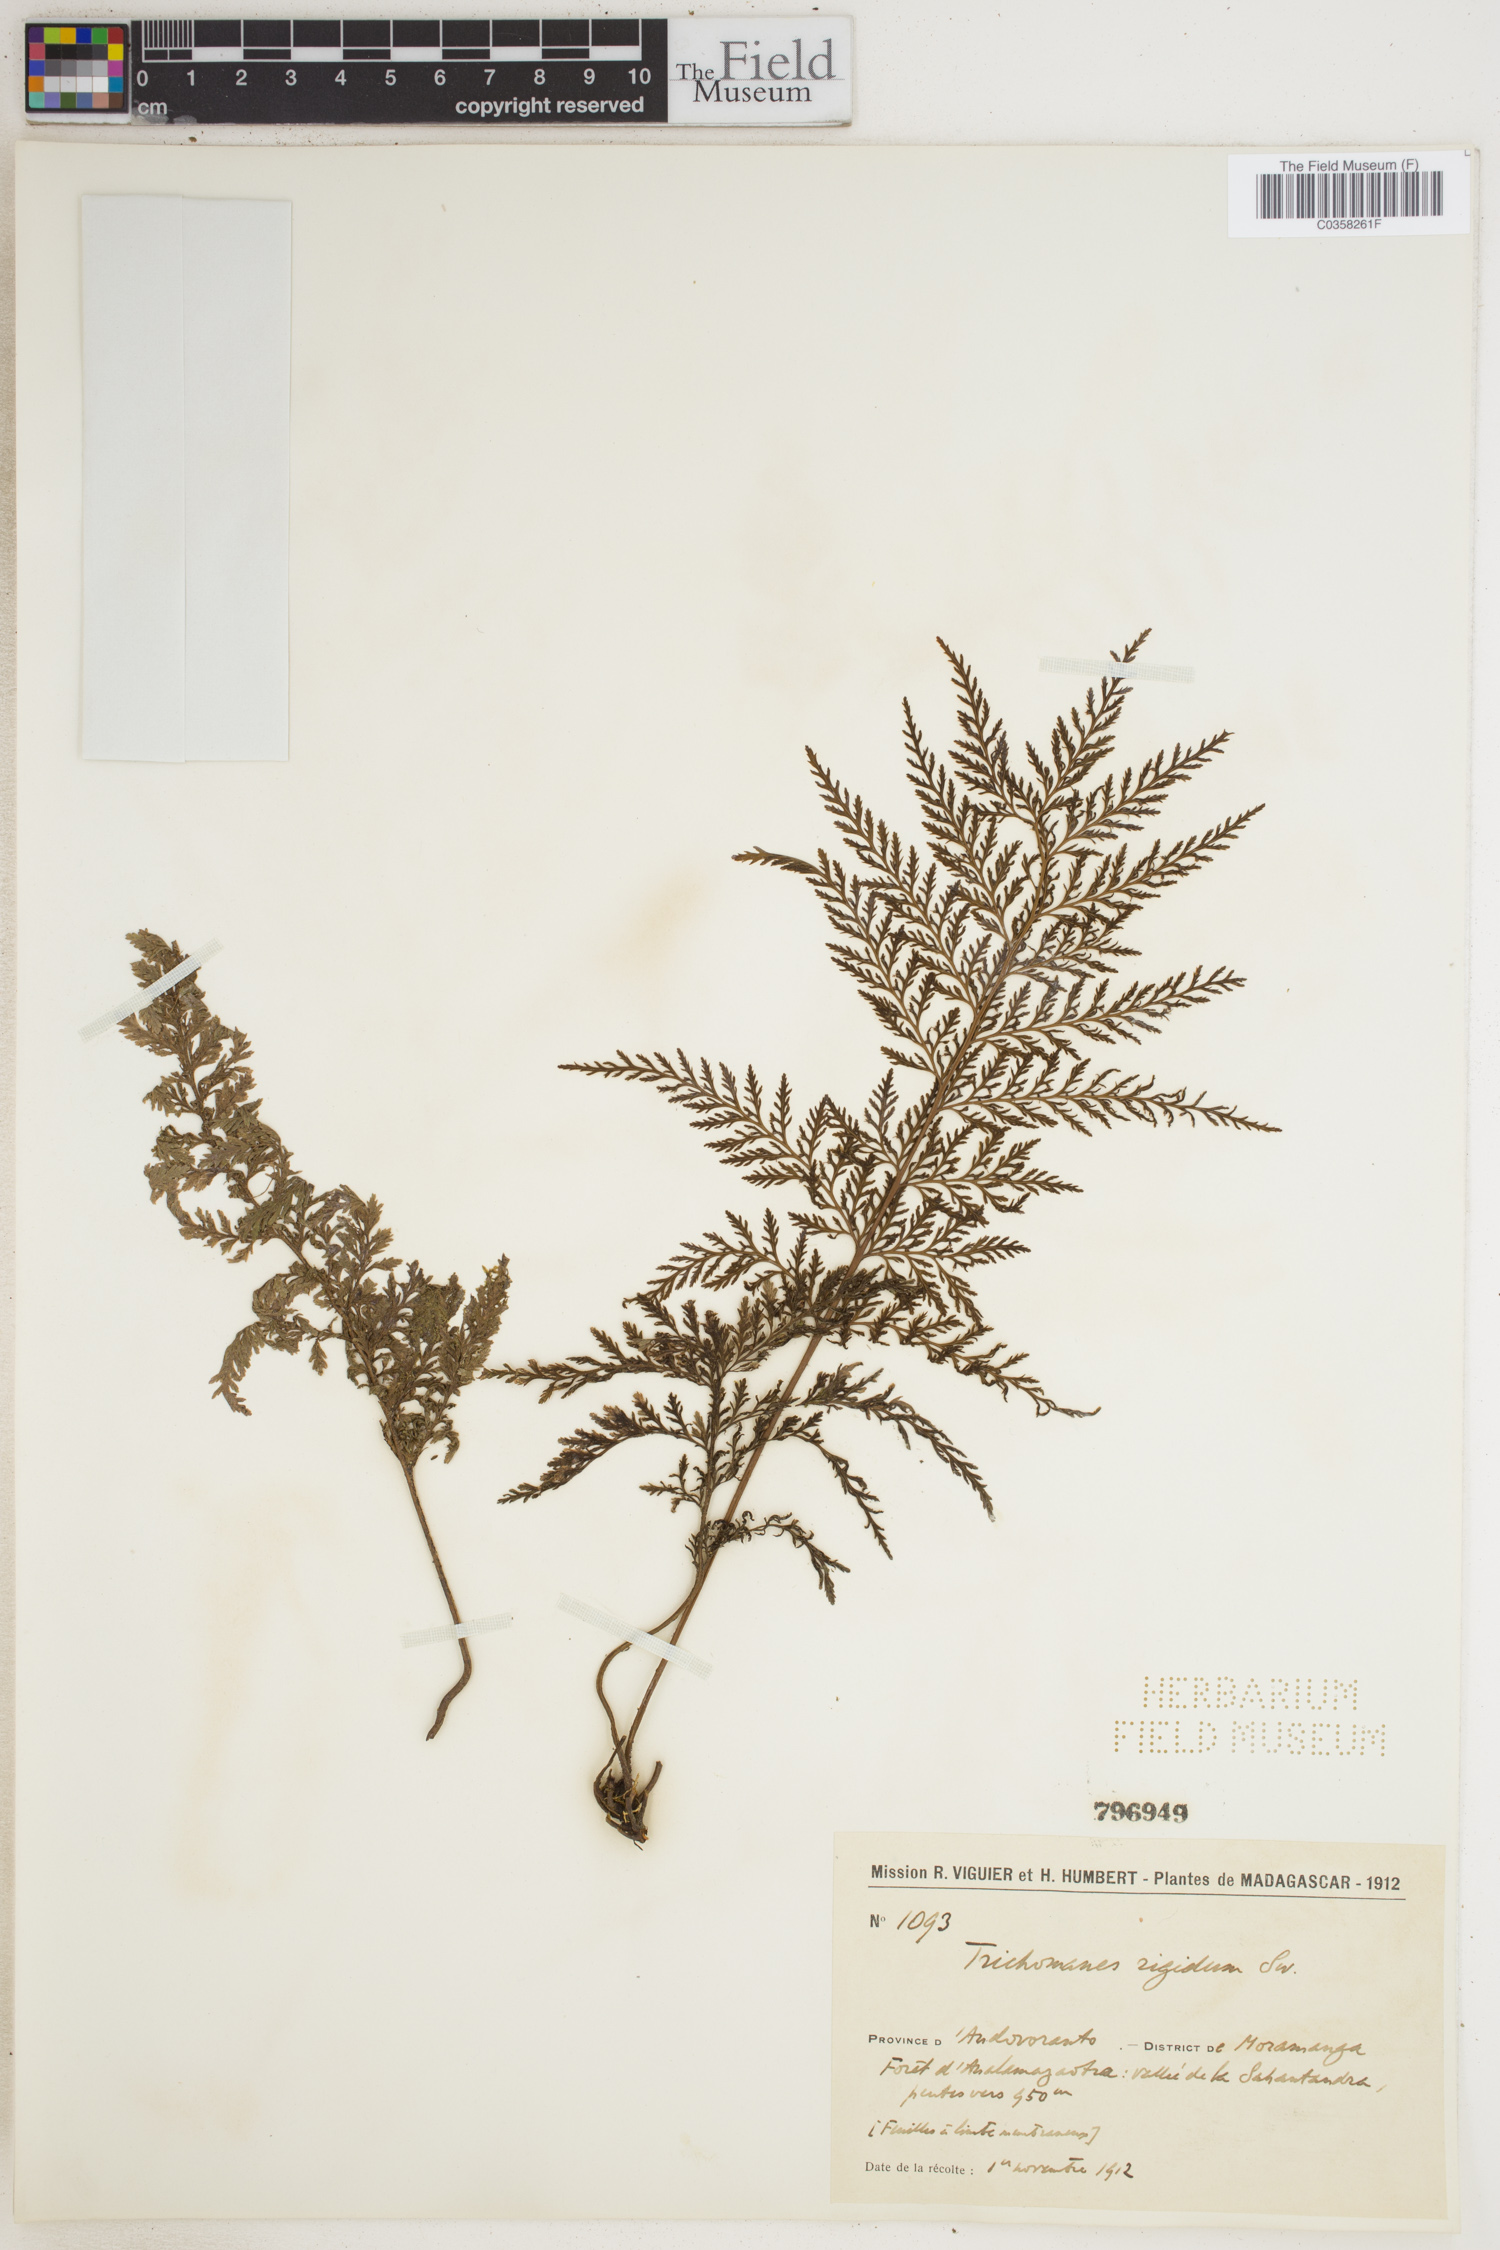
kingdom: Plantae
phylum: Tracheophyta
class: Polypodiopsida
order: Hymenophyllales
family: Hymenophyllaceae
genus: Abrodictyum
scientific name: Abrodictyum rigidum
